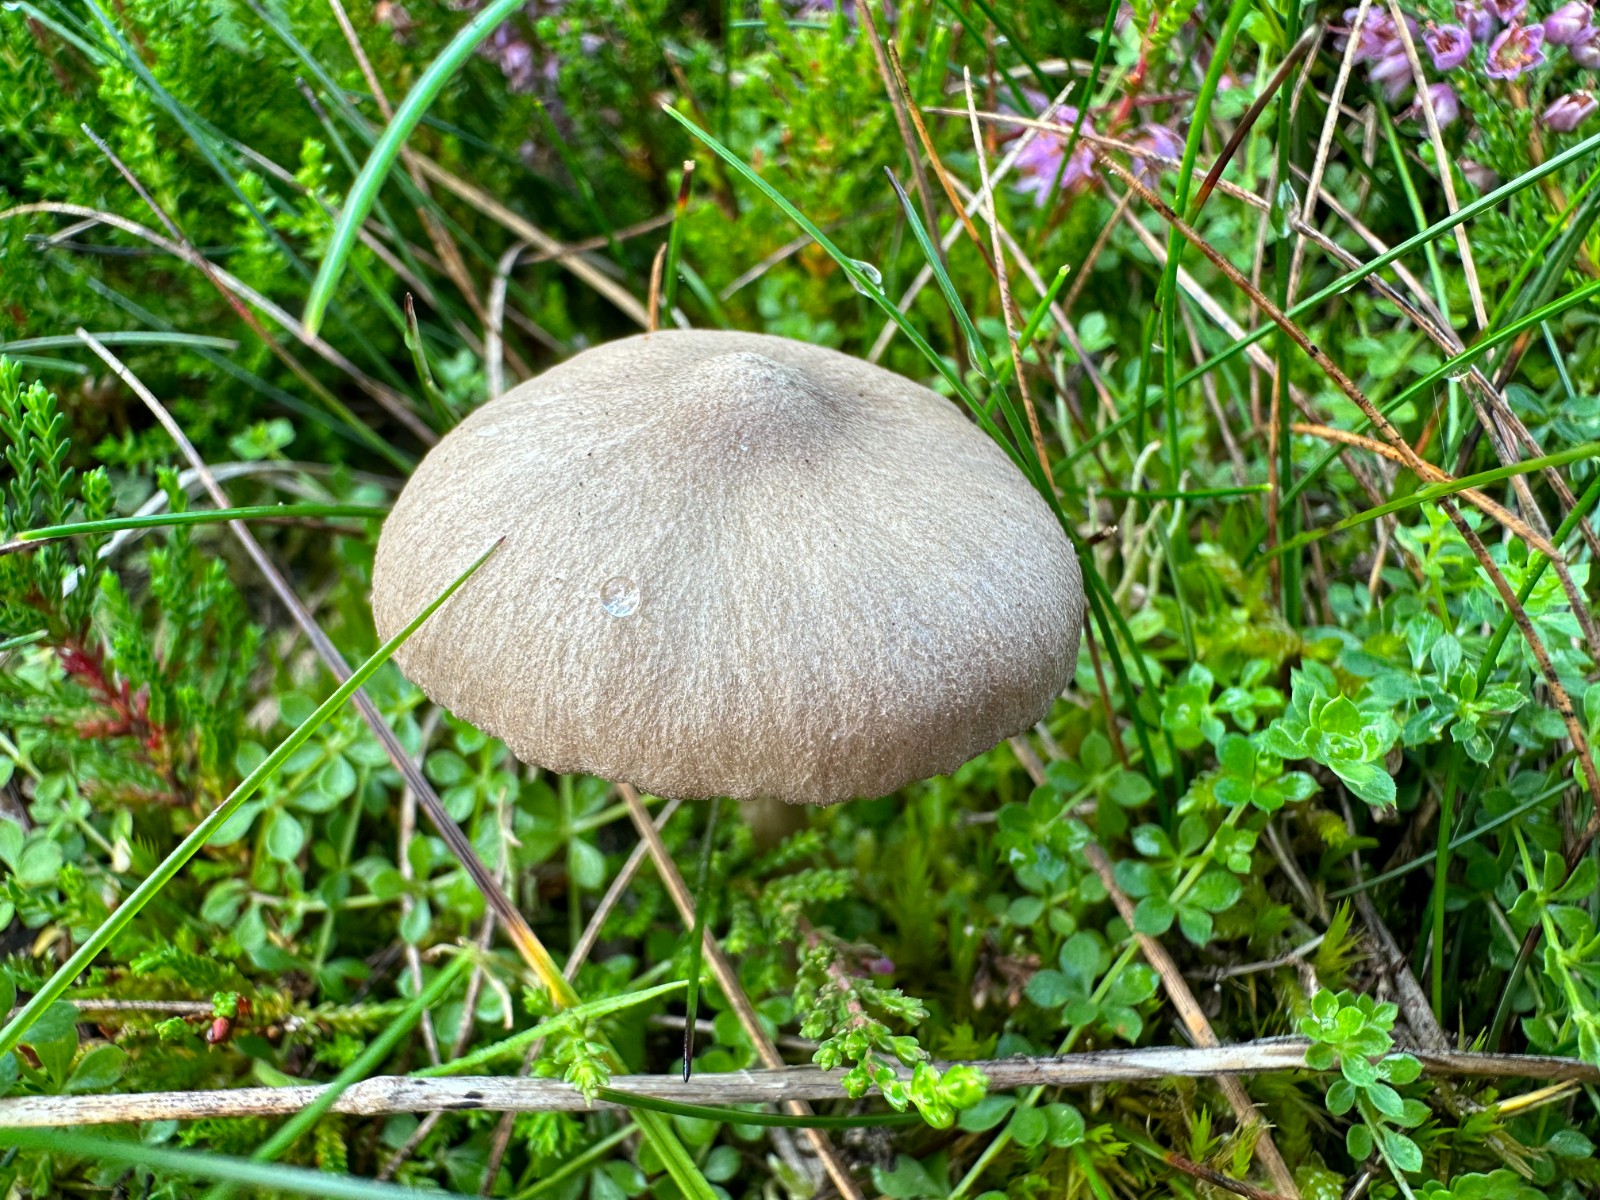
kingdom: Fungi
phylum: Basidiomycota
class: Agaricomycetes
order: Agaricales
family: Entolomataceae
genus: Entoloma
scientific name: Entoloma
